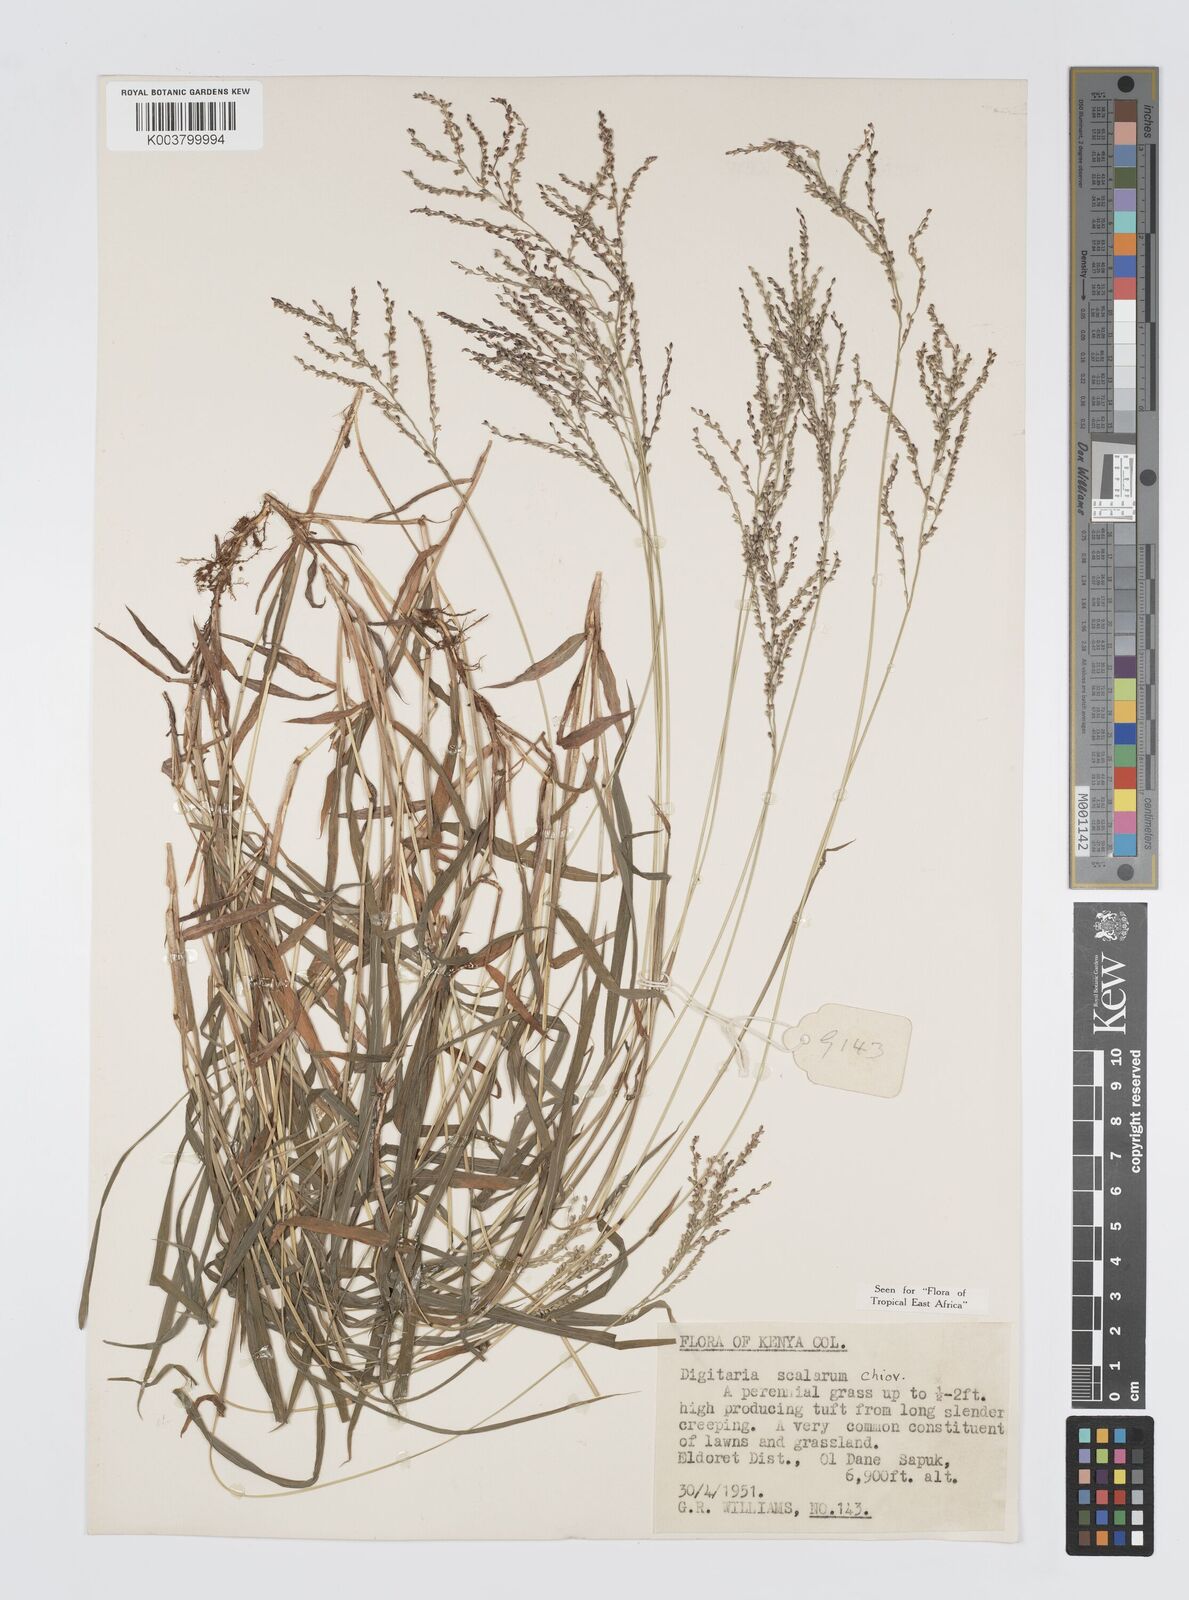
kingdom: Plantae
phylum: Tracheophyta
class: Liliopsida
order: Poales
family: Poaceae
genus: Digitaria
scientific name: Digitaria abyssinica
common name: African couchgrass
